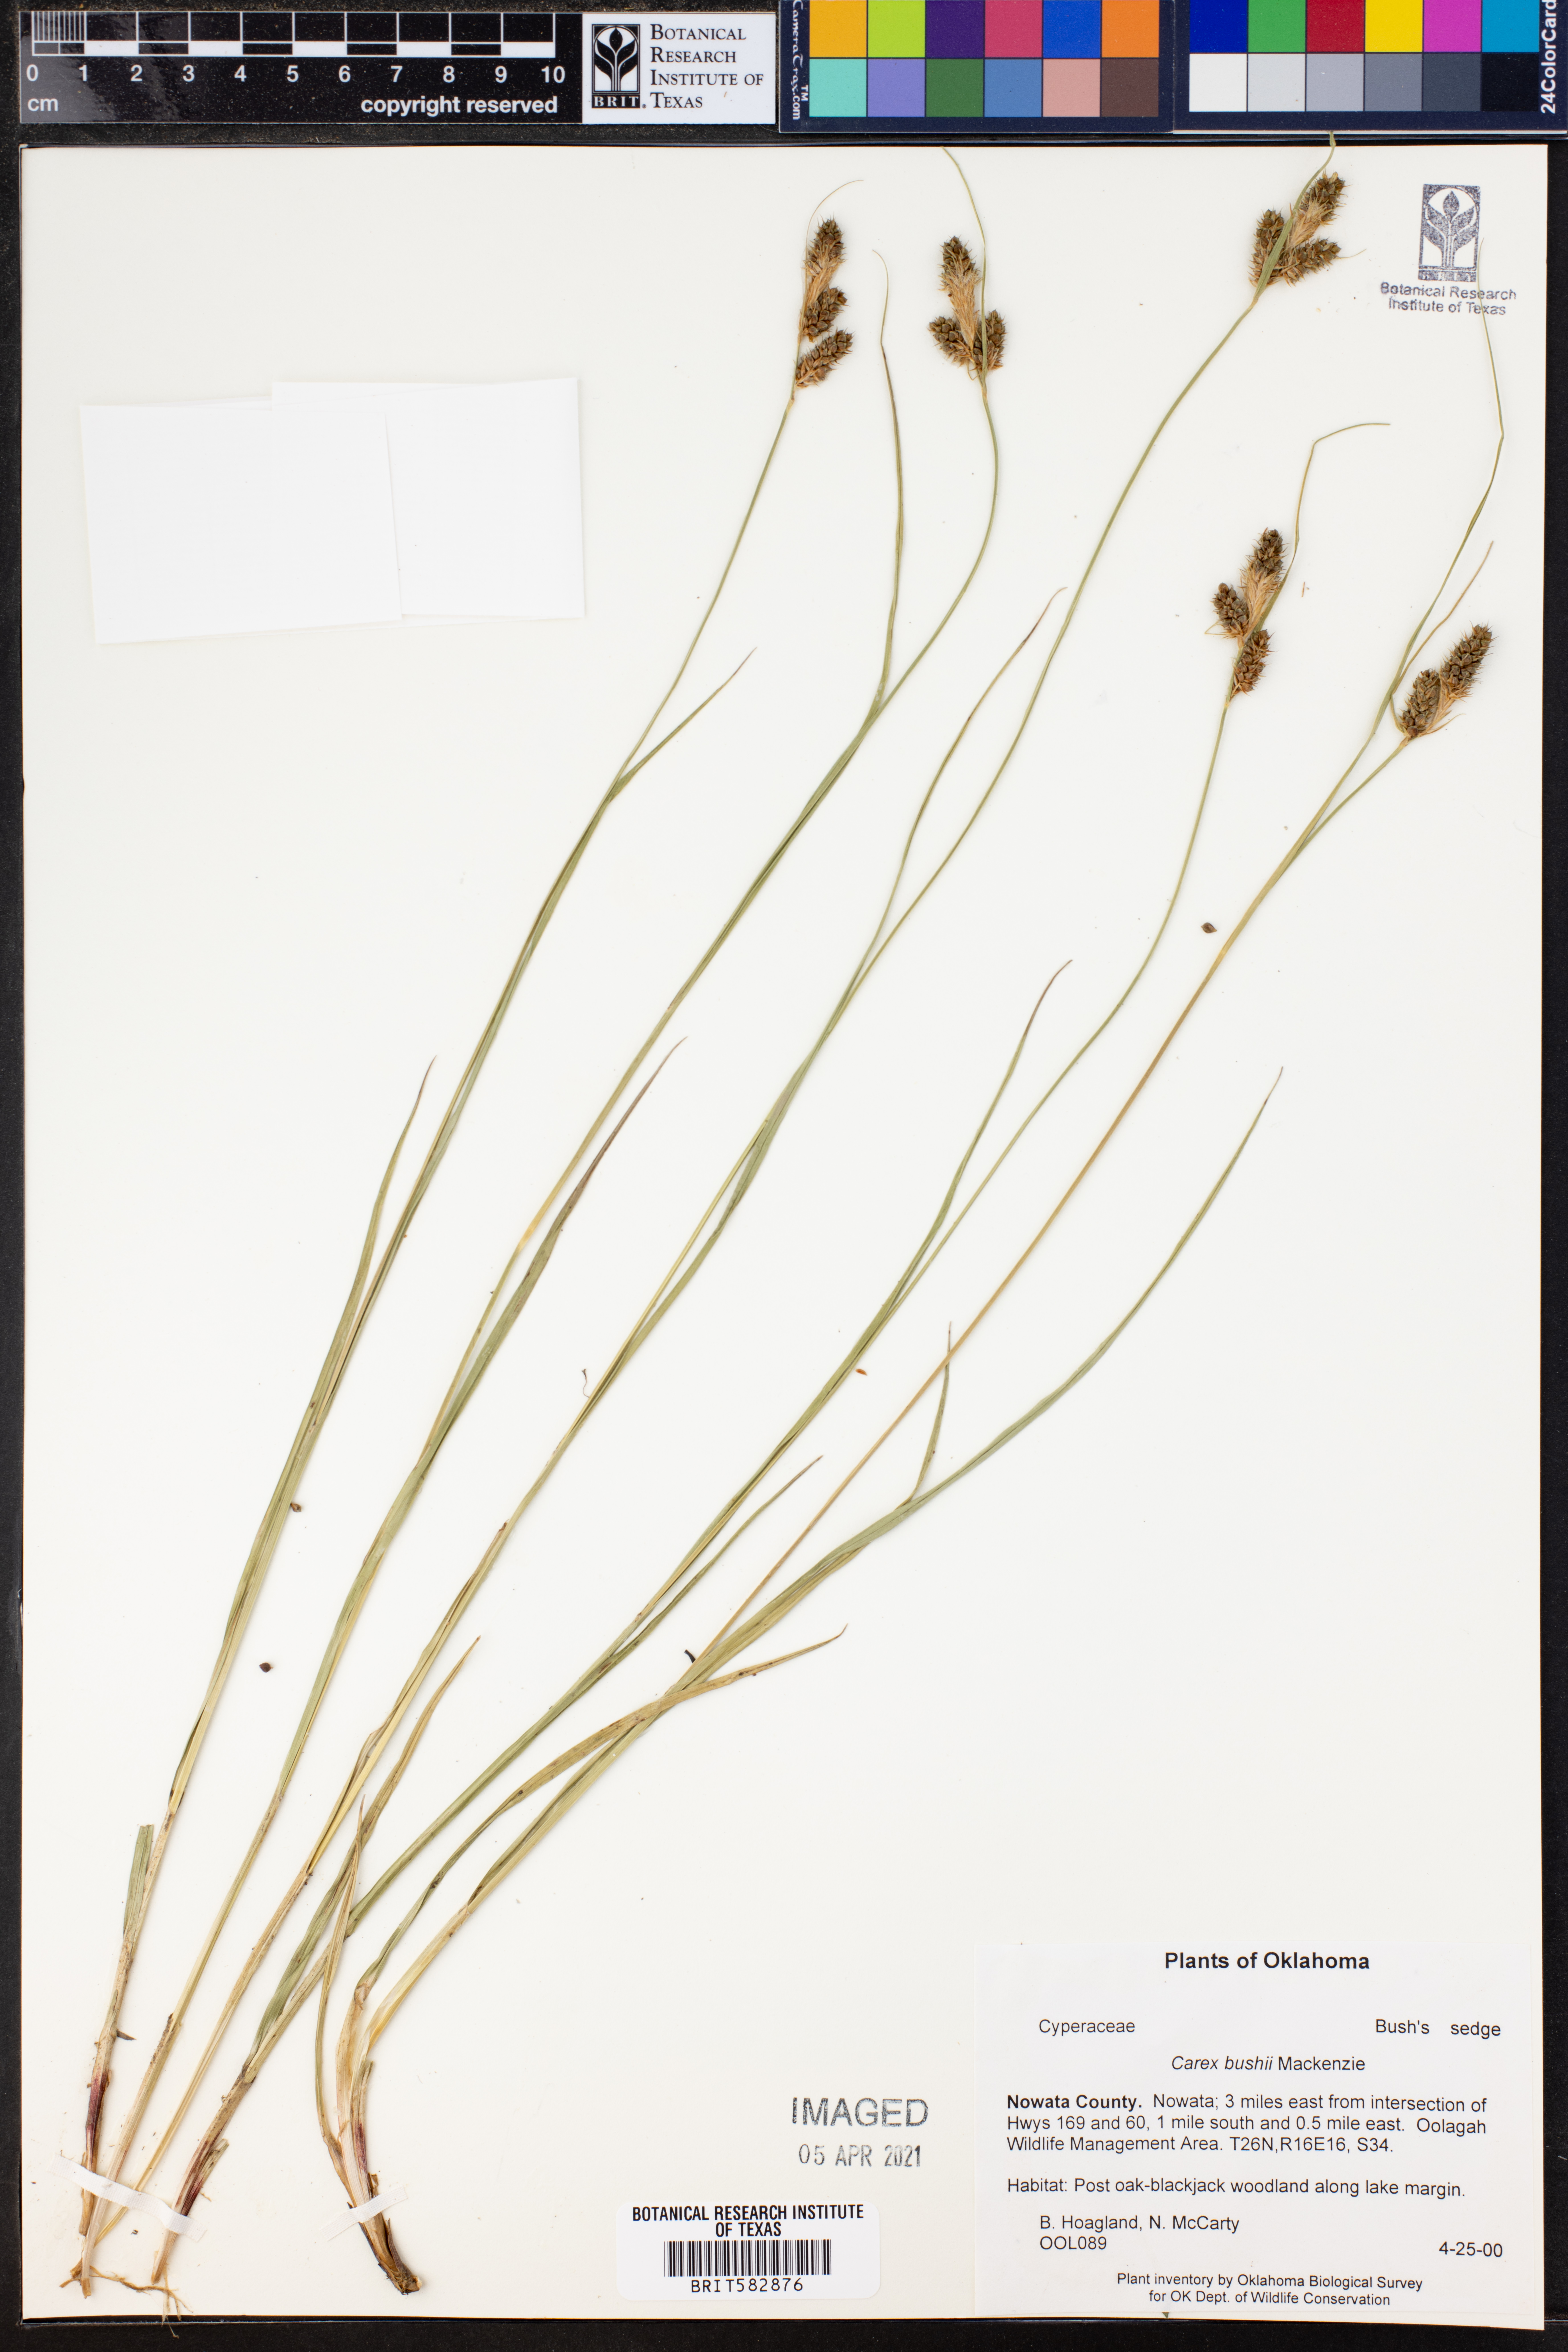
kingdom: Plantae
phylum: Tracheophyta
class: Liliopsida
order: Poales
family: Cyperaceae
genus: Carex
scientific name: Carex buchananii
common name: Leatherleaf sedge
